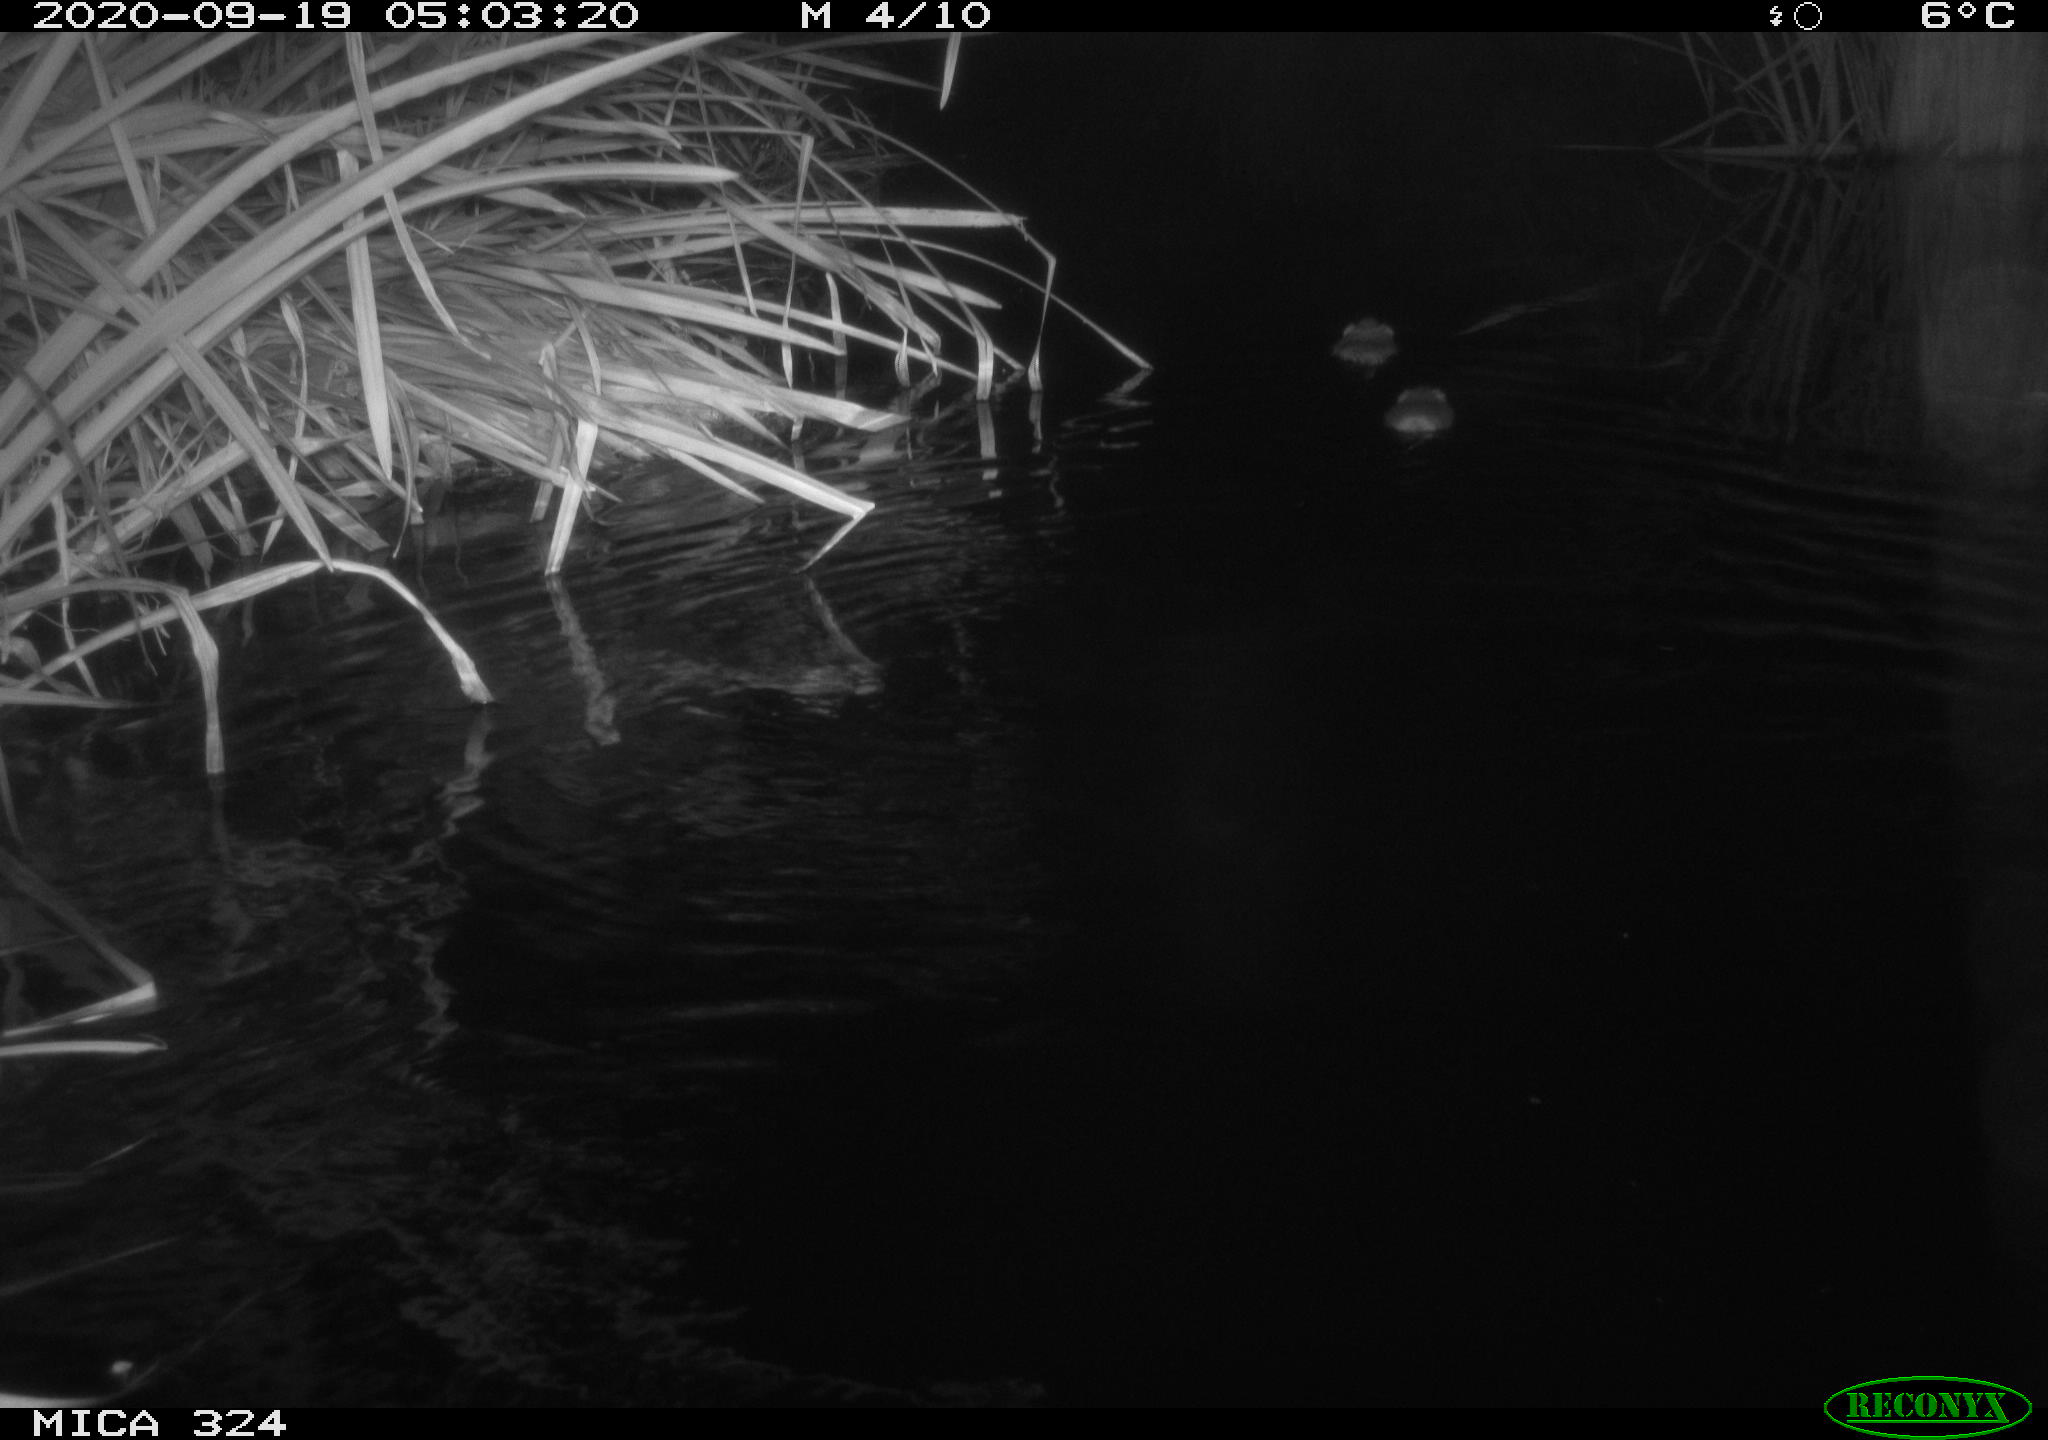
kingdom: Animalia
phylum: Chordata
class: Mammalia
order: Rodentia
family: Myocastoridae
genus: Myocastor
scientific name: Myocastor coypus
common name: Coypu
